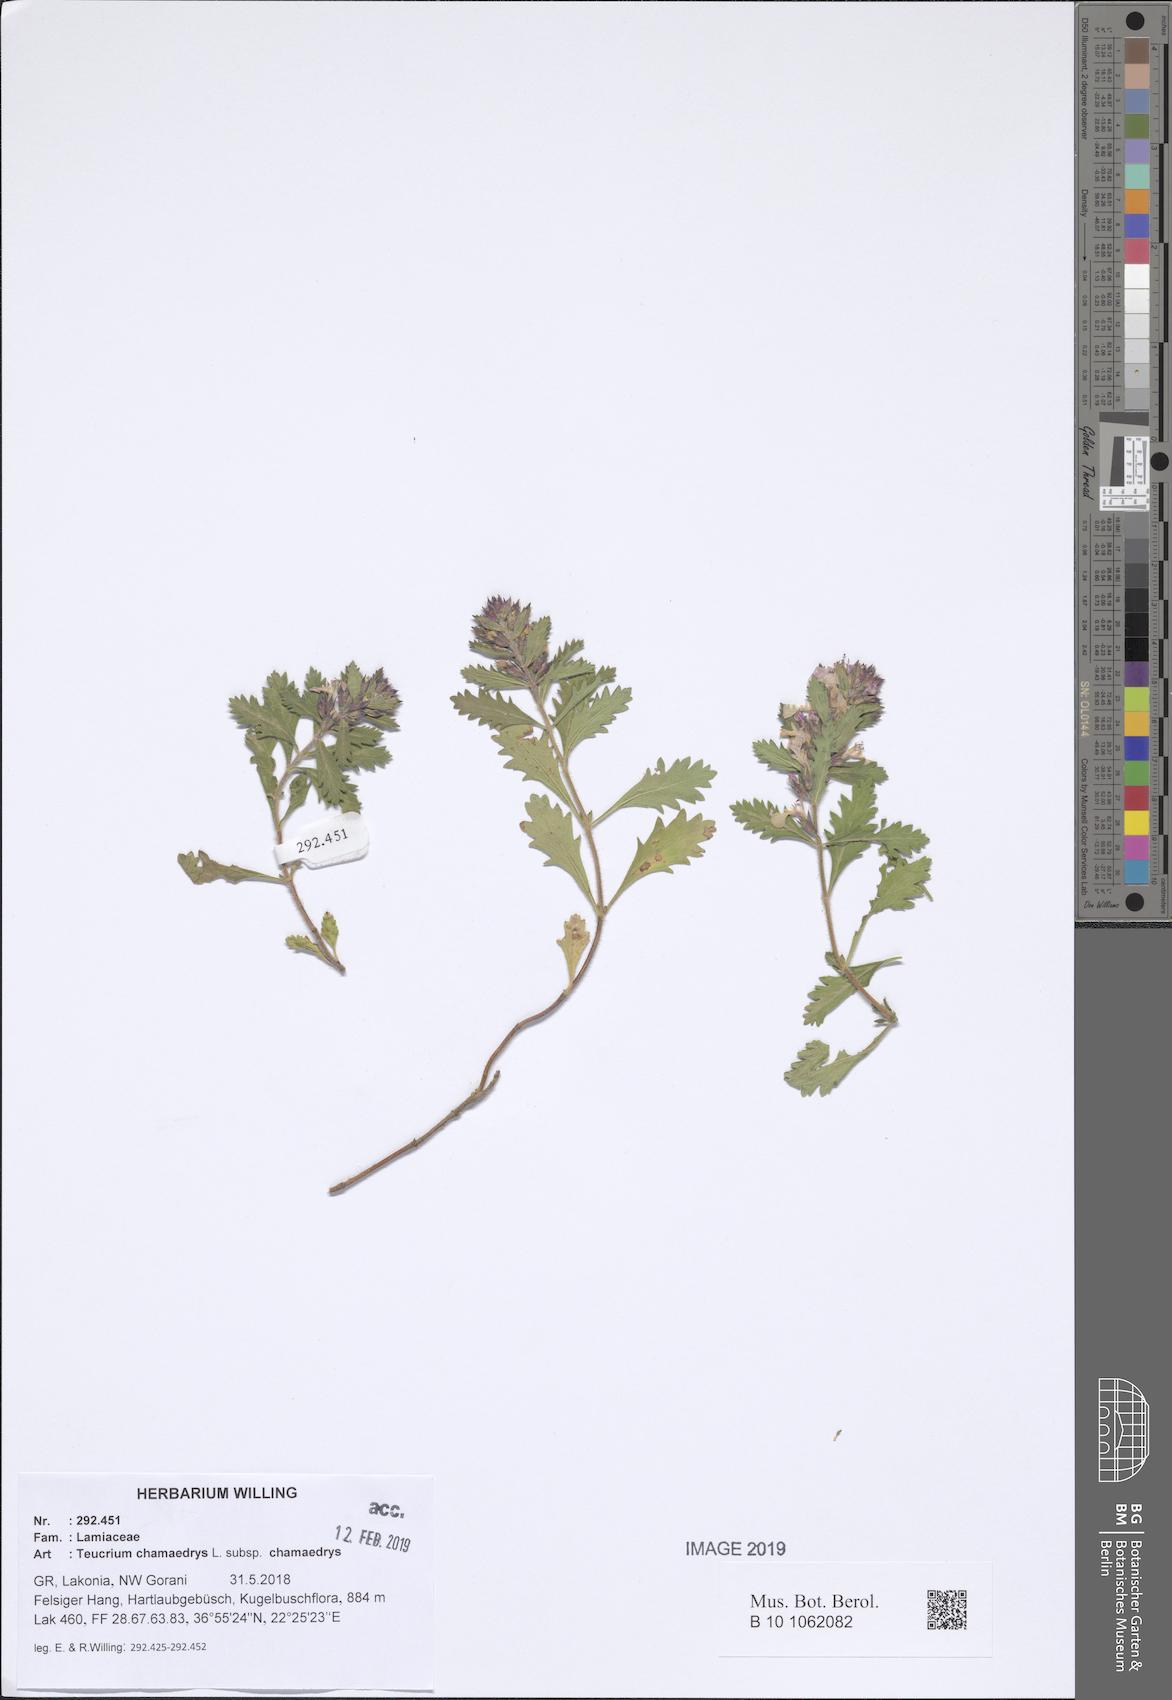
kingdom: Plantae
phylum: Tracheophyta
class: Magnoliopsida
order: Lamiales
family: Lamiaceae
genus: Teucrium
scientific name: Teucrium chamaedrys
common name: Wall germander
